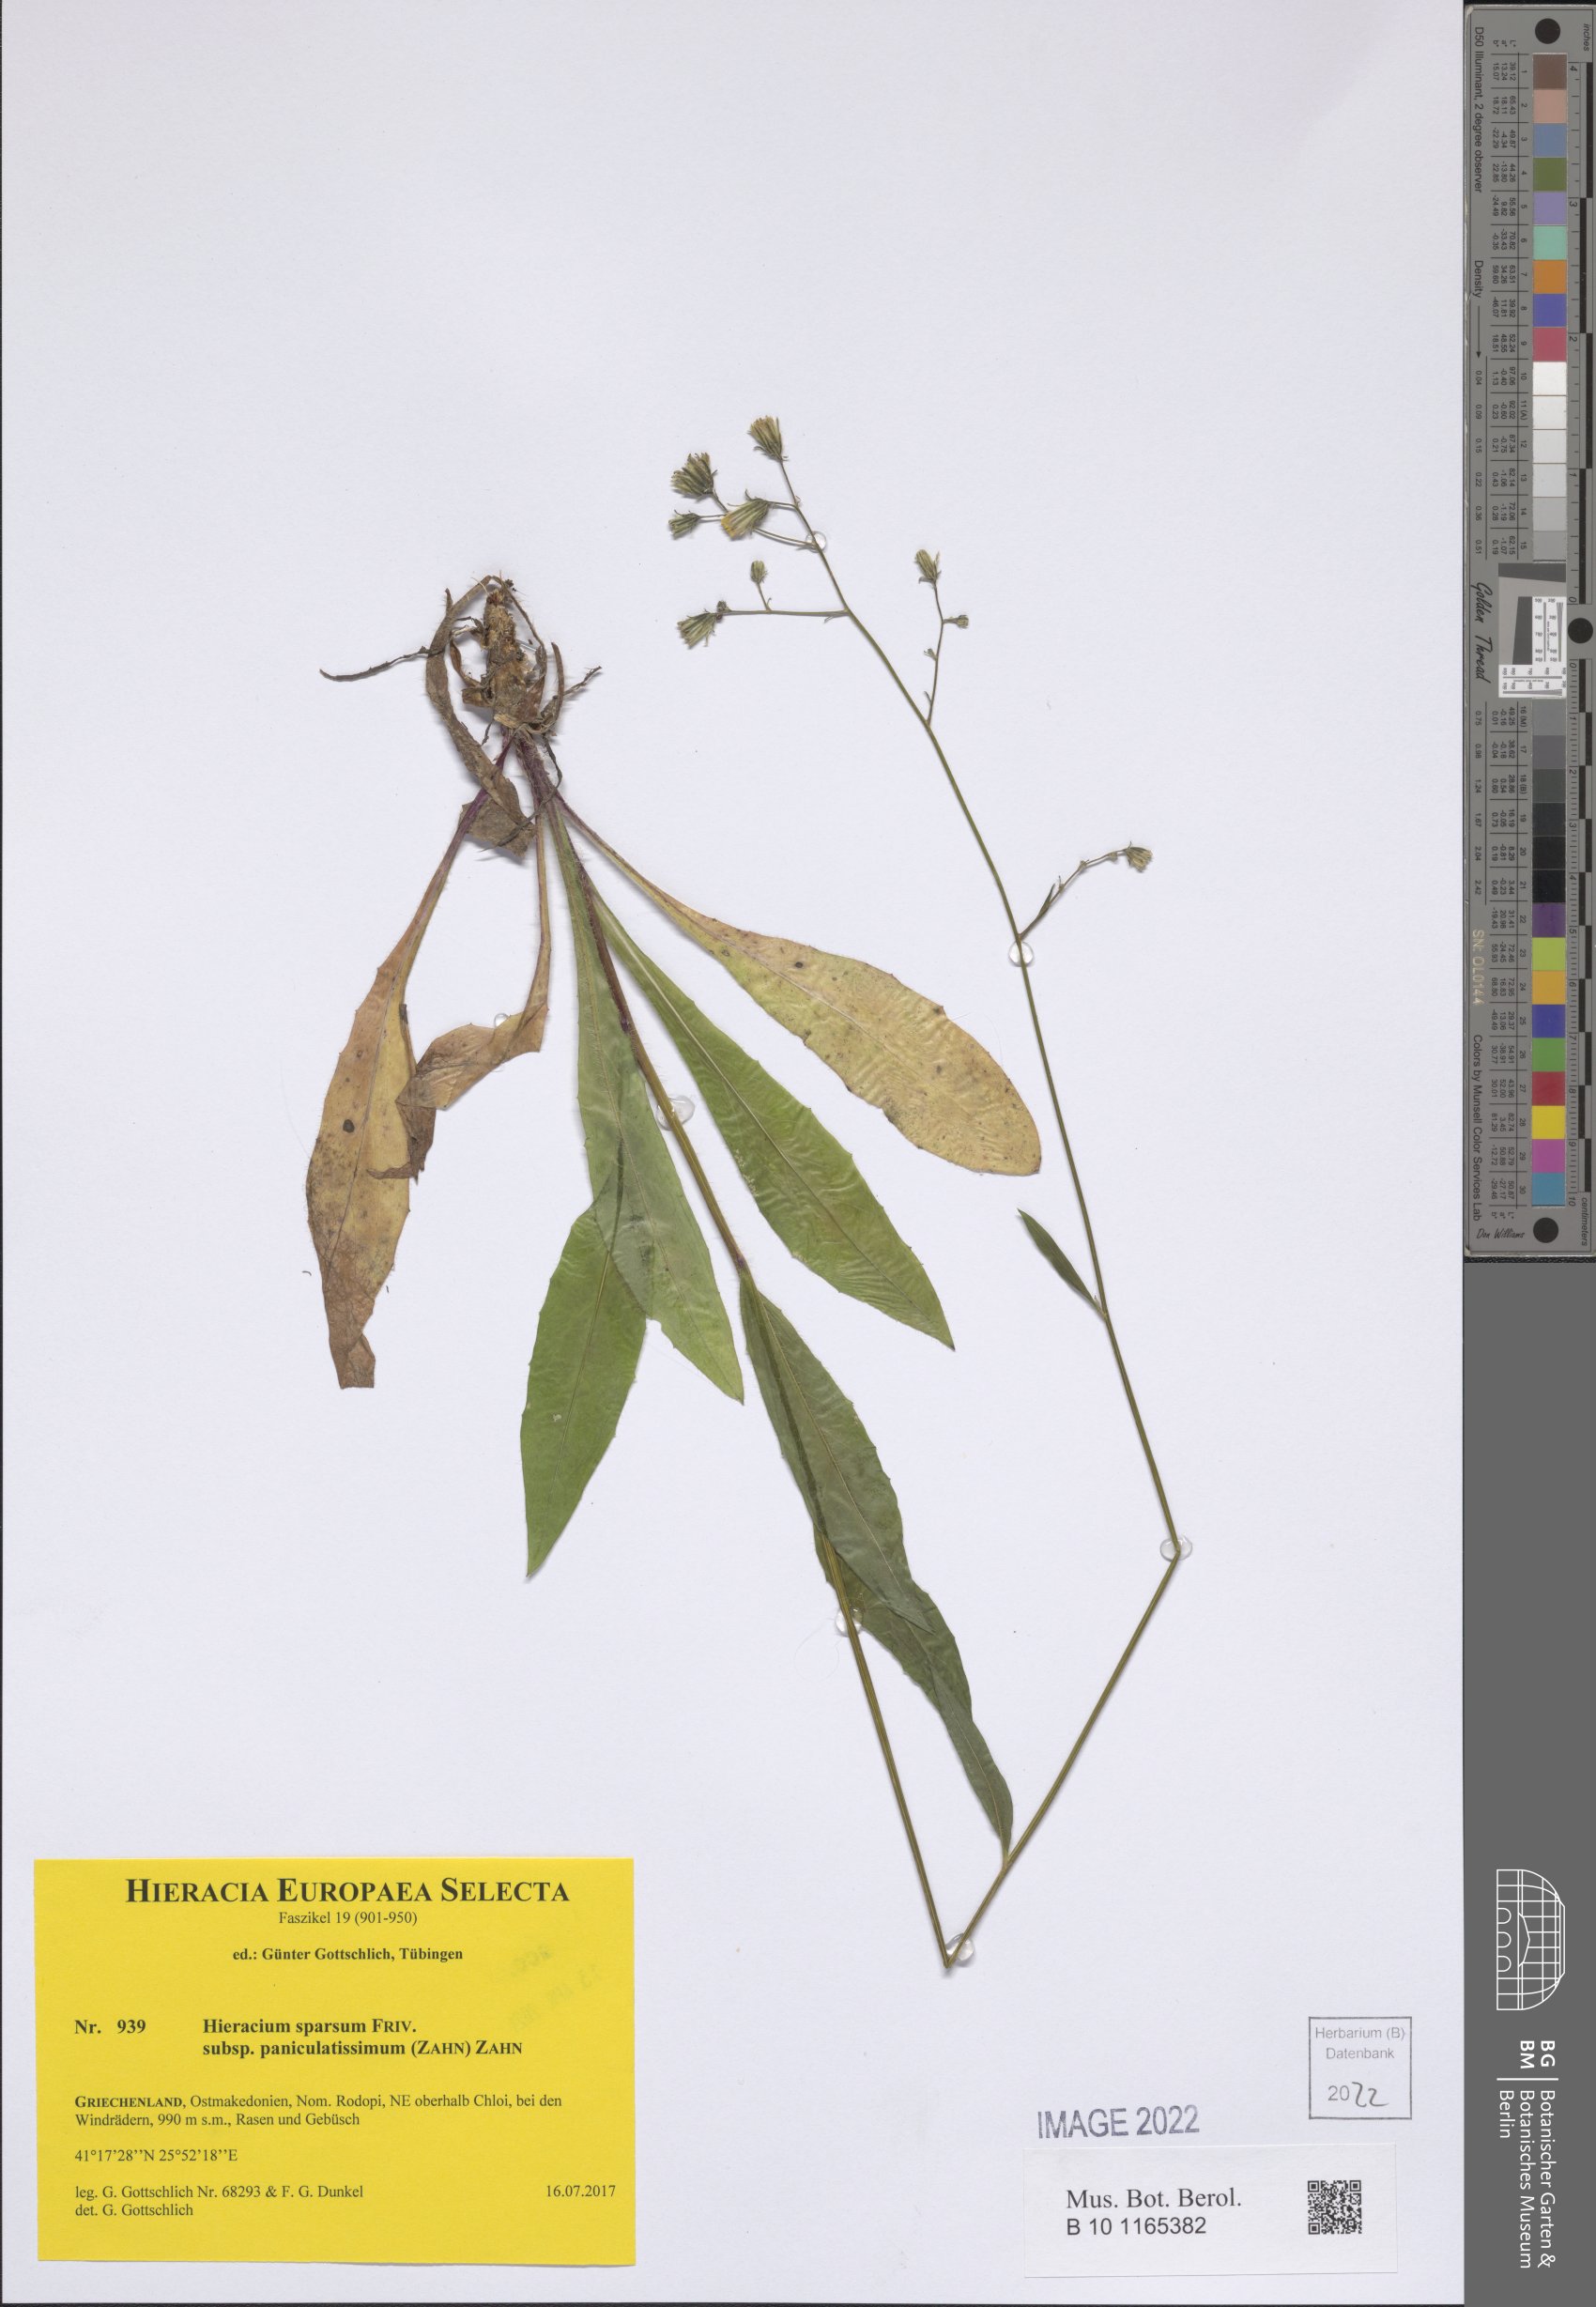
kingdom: Plantae
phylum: Tracheophyta
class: Magnoliopsida
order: Asterales
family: Asteraceae
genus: Hieracium
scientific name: Hieracium sparsum
